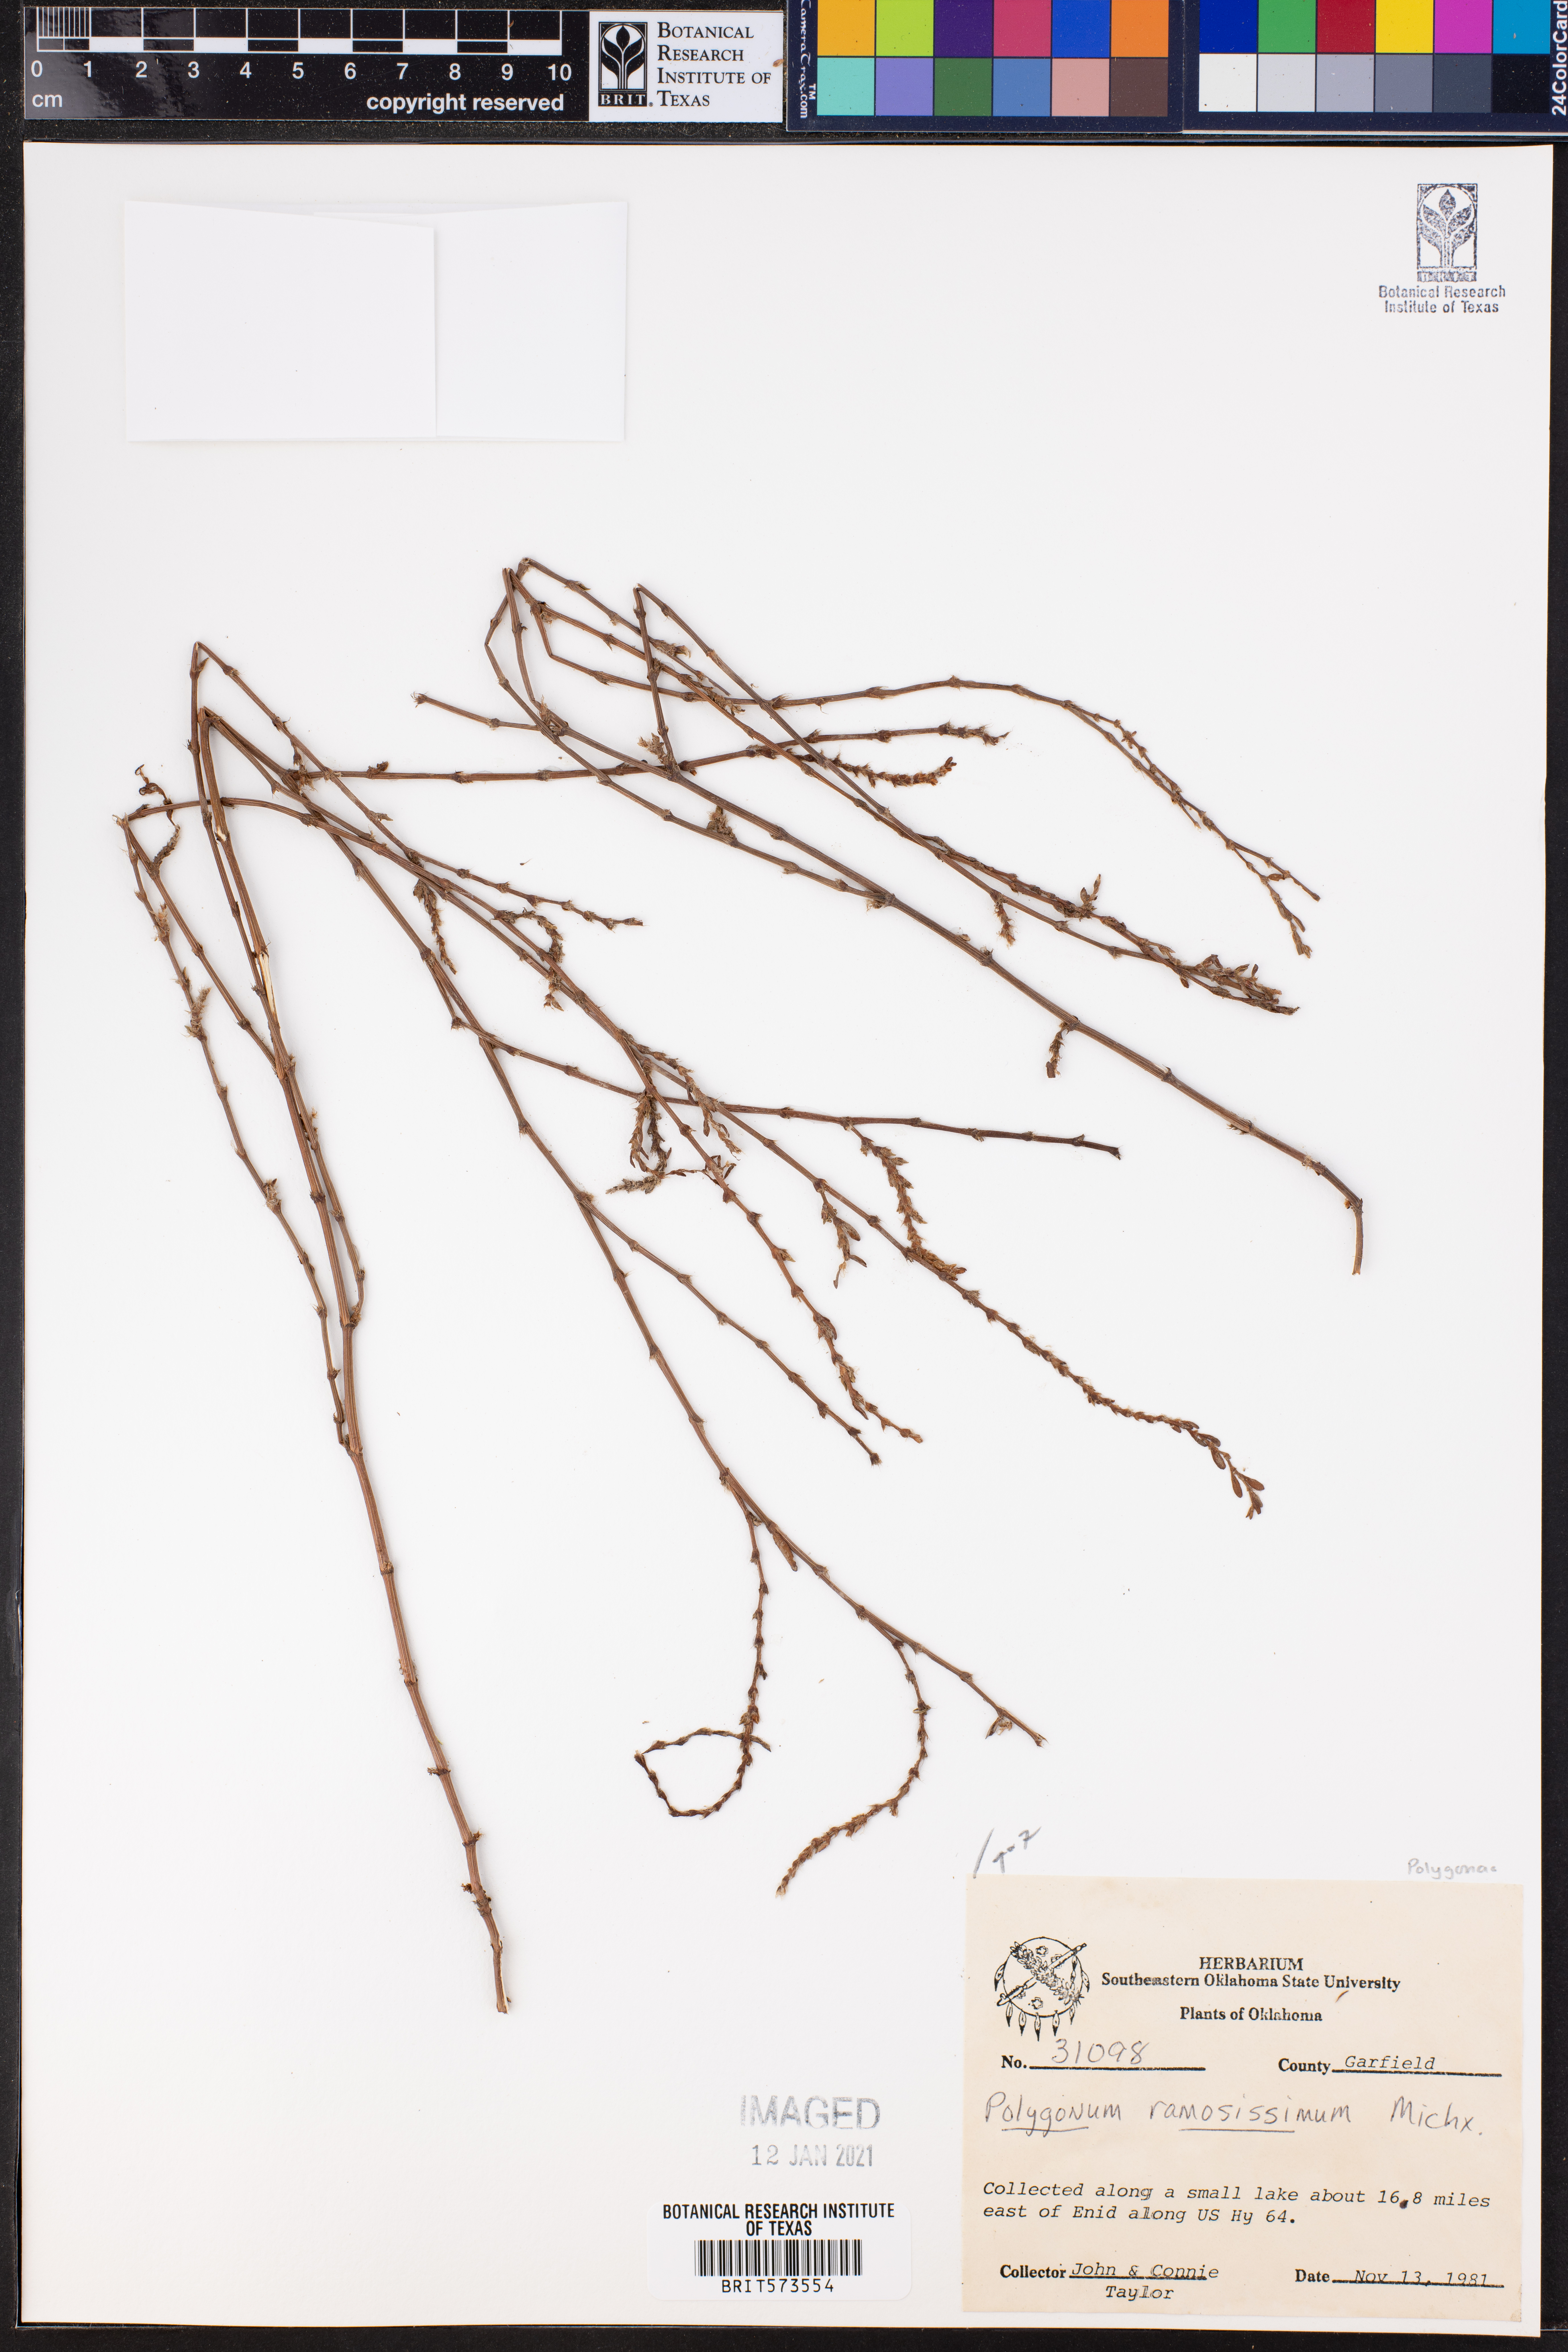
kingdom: Plantae
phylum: Tracheophyta
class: Magnoliopsida
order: Caryophyllales
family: Polygonaceae
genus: Polygonum
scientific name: Polygonum ramosissimum
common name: Bushy knotweed
